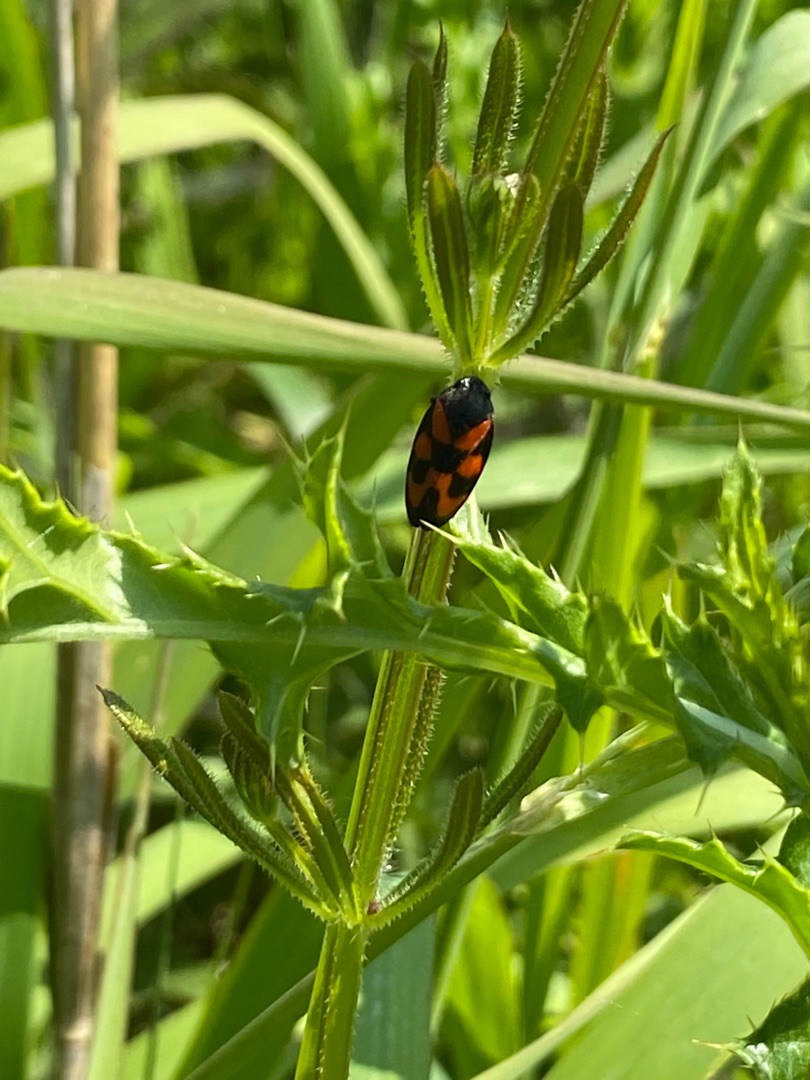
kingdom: Animalia
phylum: Arthropoda
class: Insecta
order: Hemiptera
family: Cercopidae
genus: Cercopis
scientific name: Cercopis vulnerata
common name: Blodcikade
